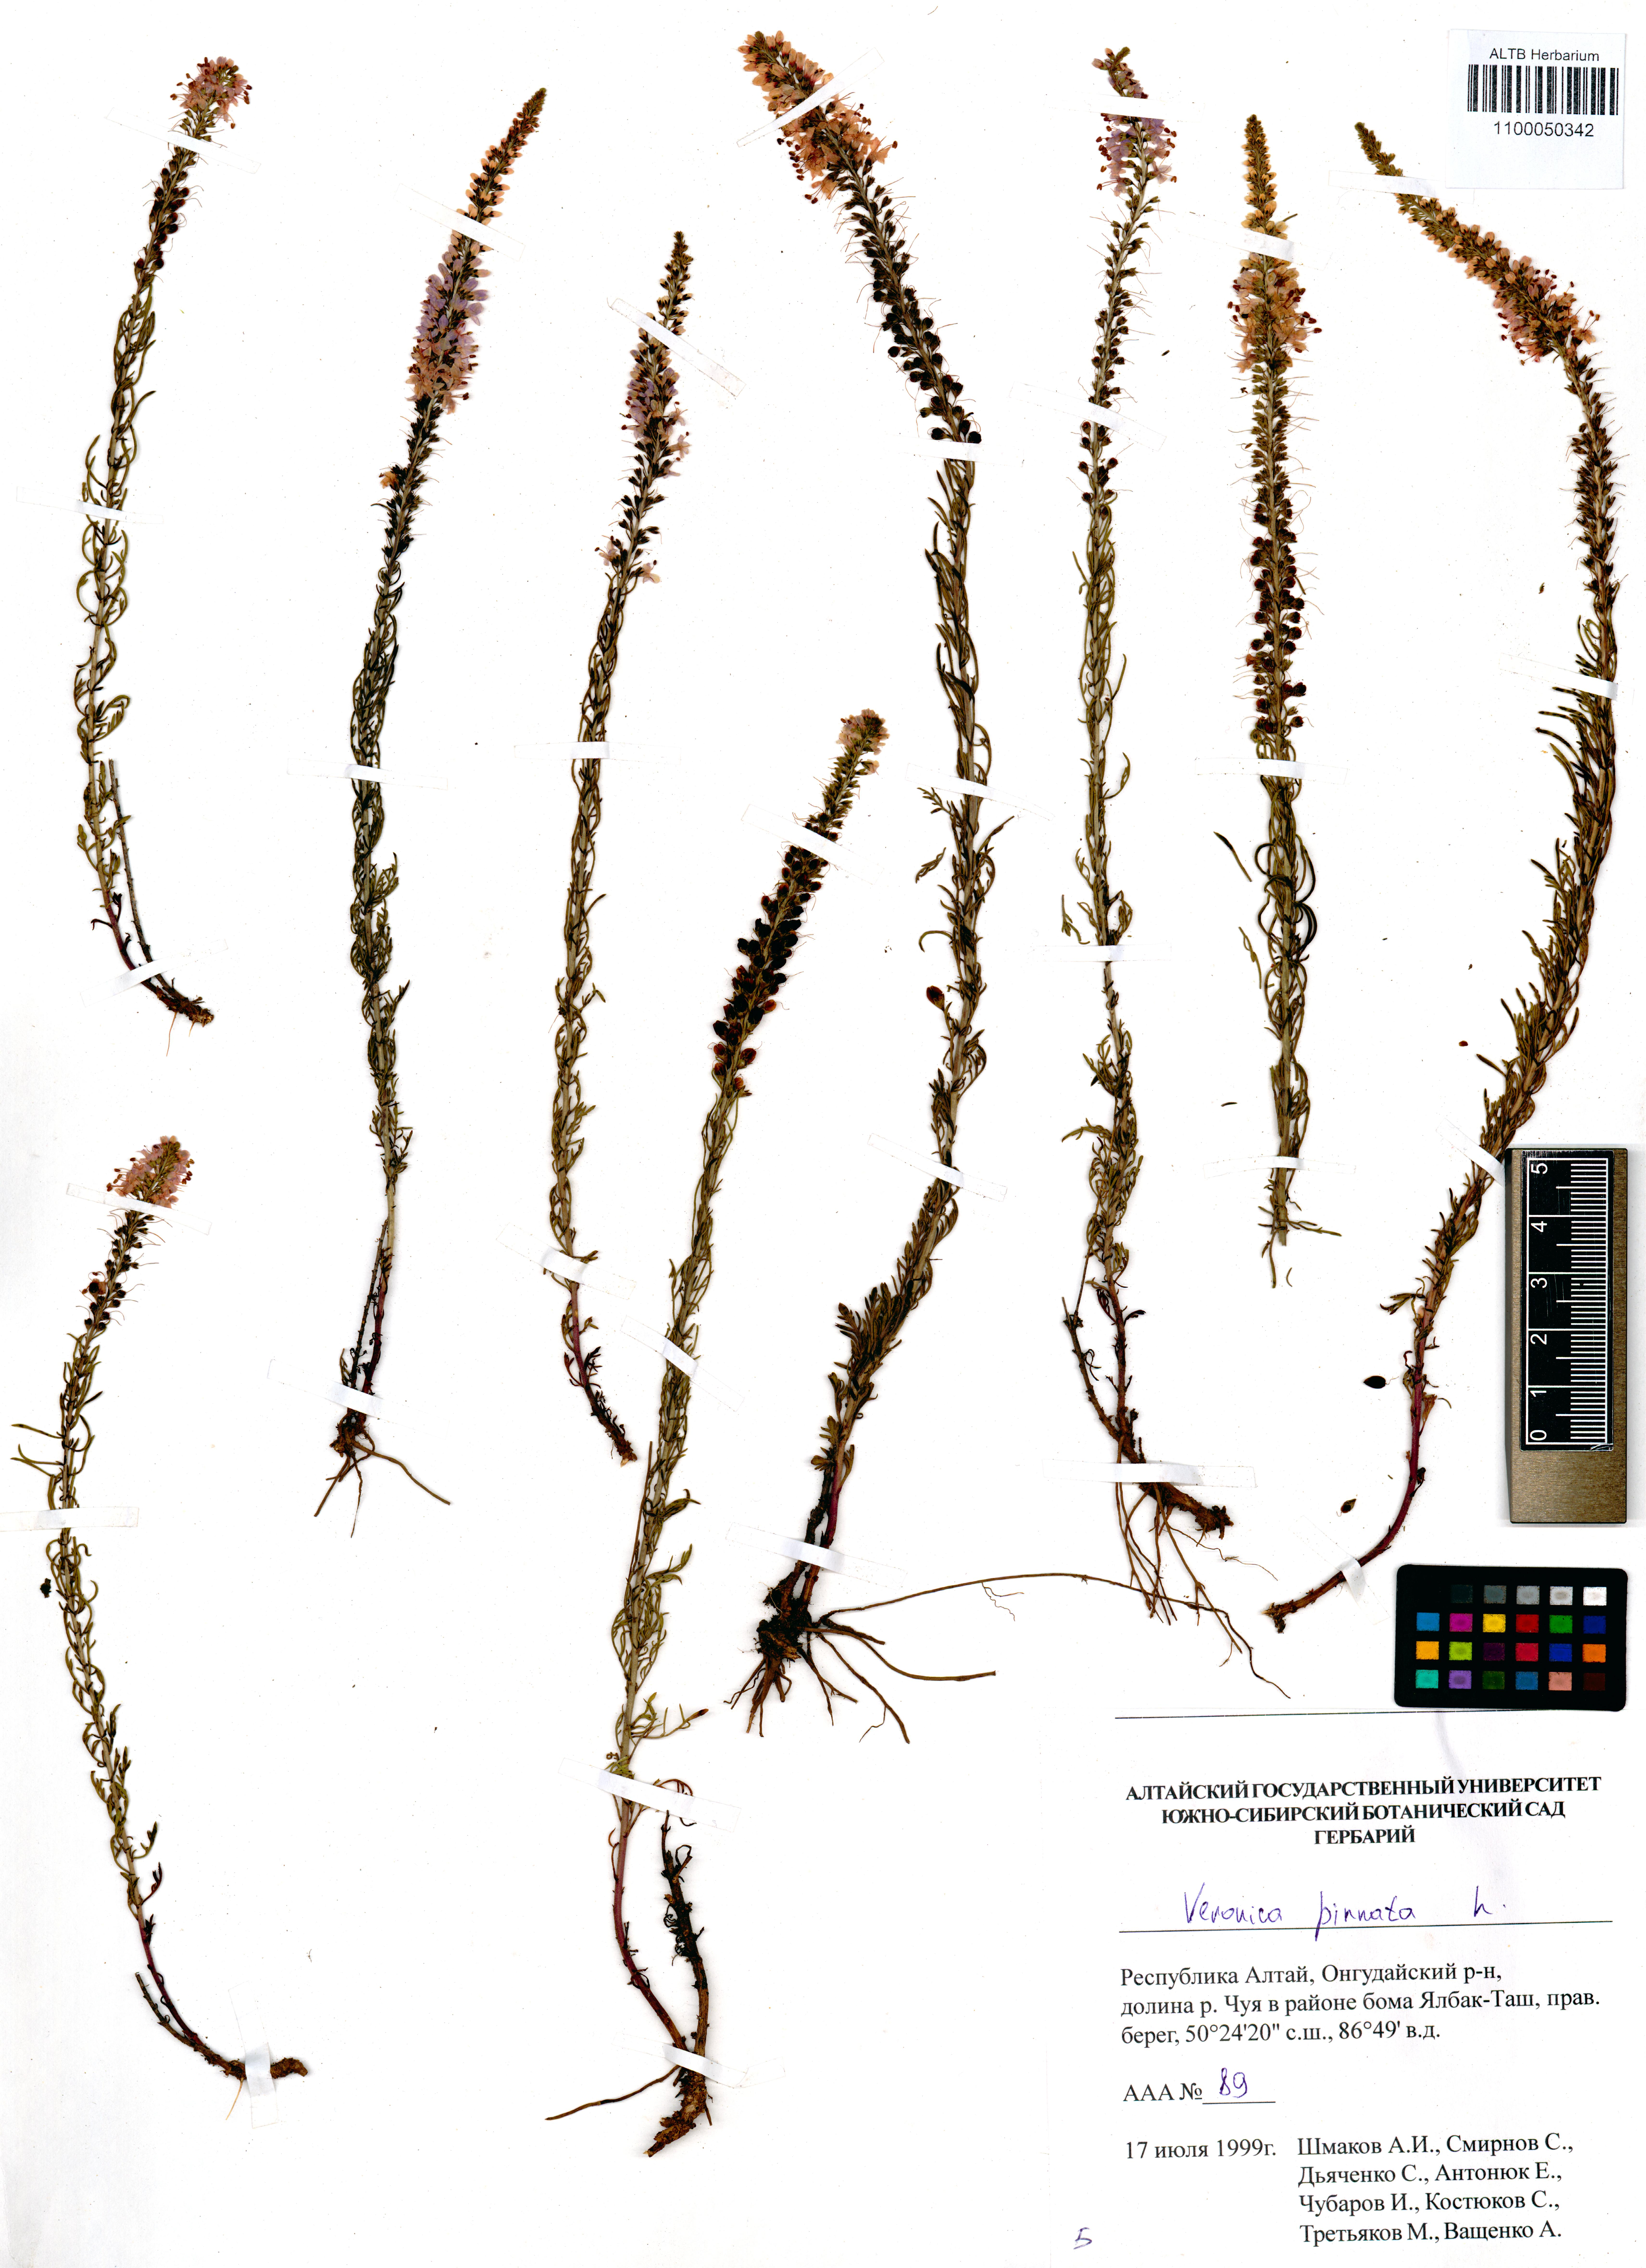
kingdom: Plantae
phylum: Tracheophyta
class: Magnoliopsida
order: Lamiales
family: Plantaginaceae
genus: Veronica
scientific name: Veronica pinnata
